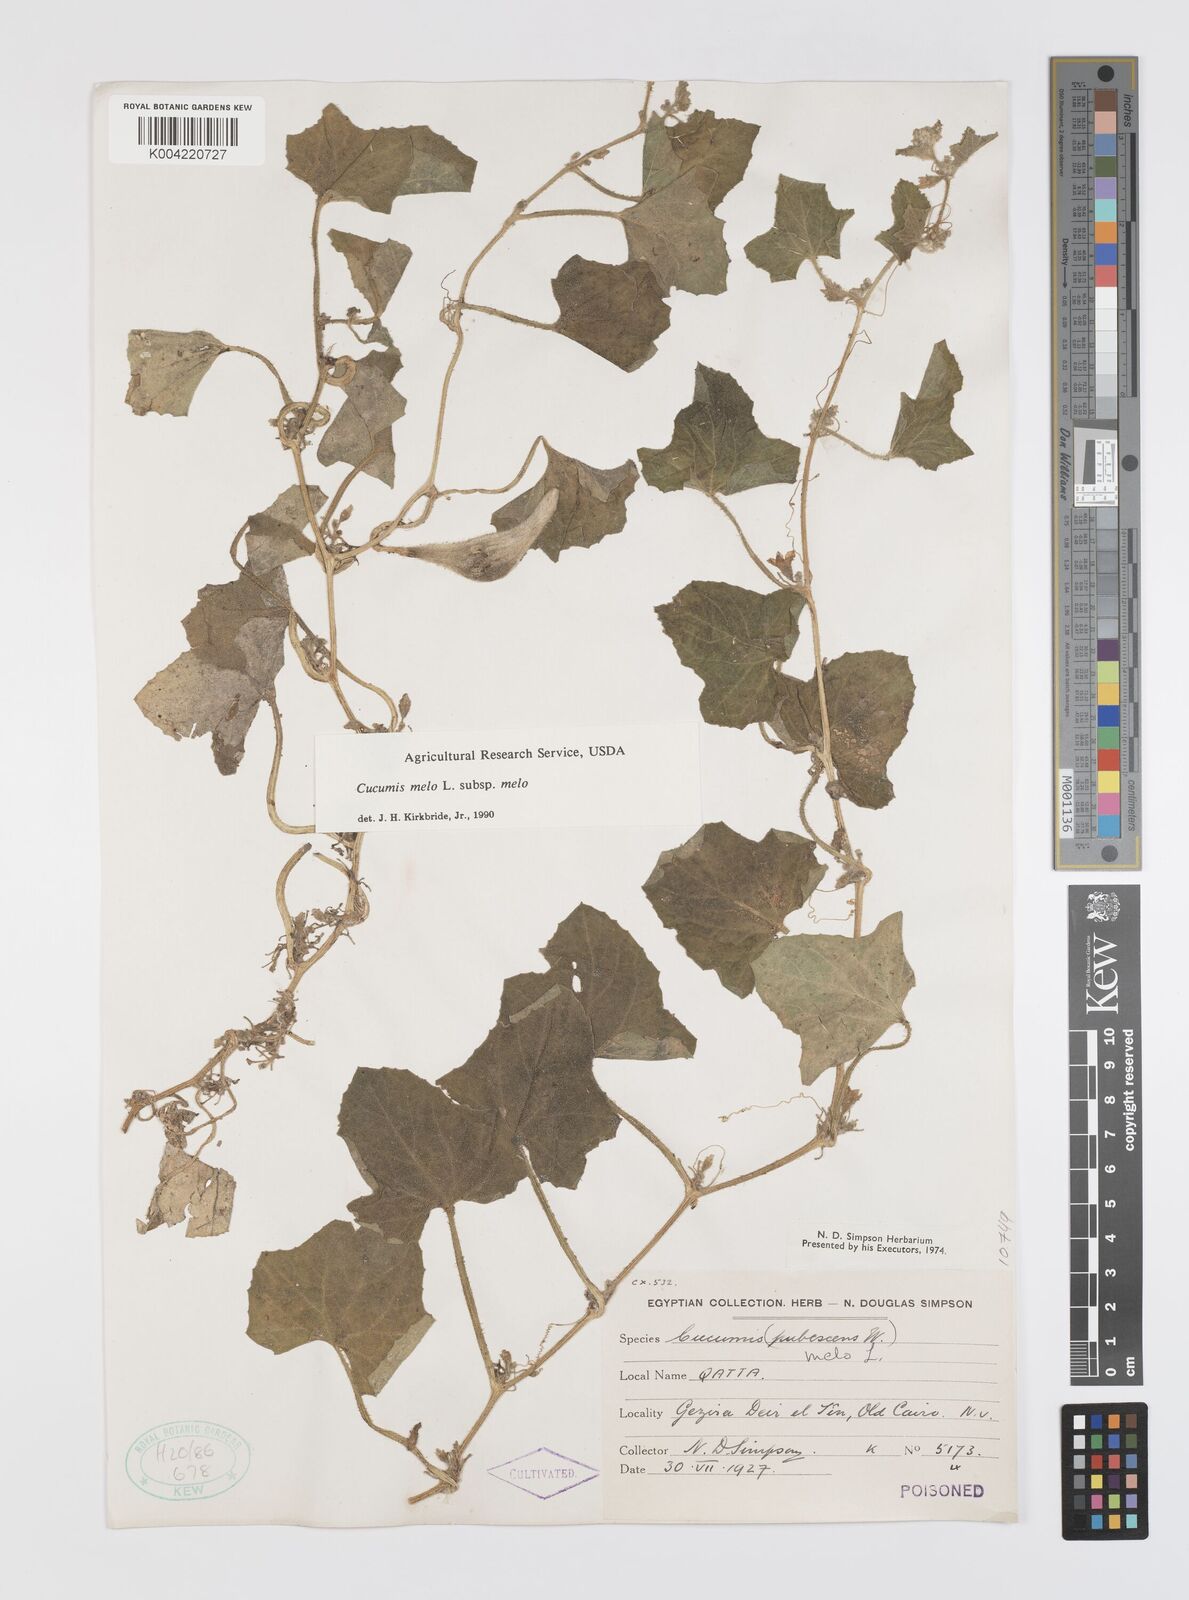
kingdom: Plantae
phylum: Tracheophyta
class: Magnoliopsida
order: Cucurbitales
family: Cucurbitaceae
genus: Cucumis
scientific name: Cucumis melo
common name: Melon
